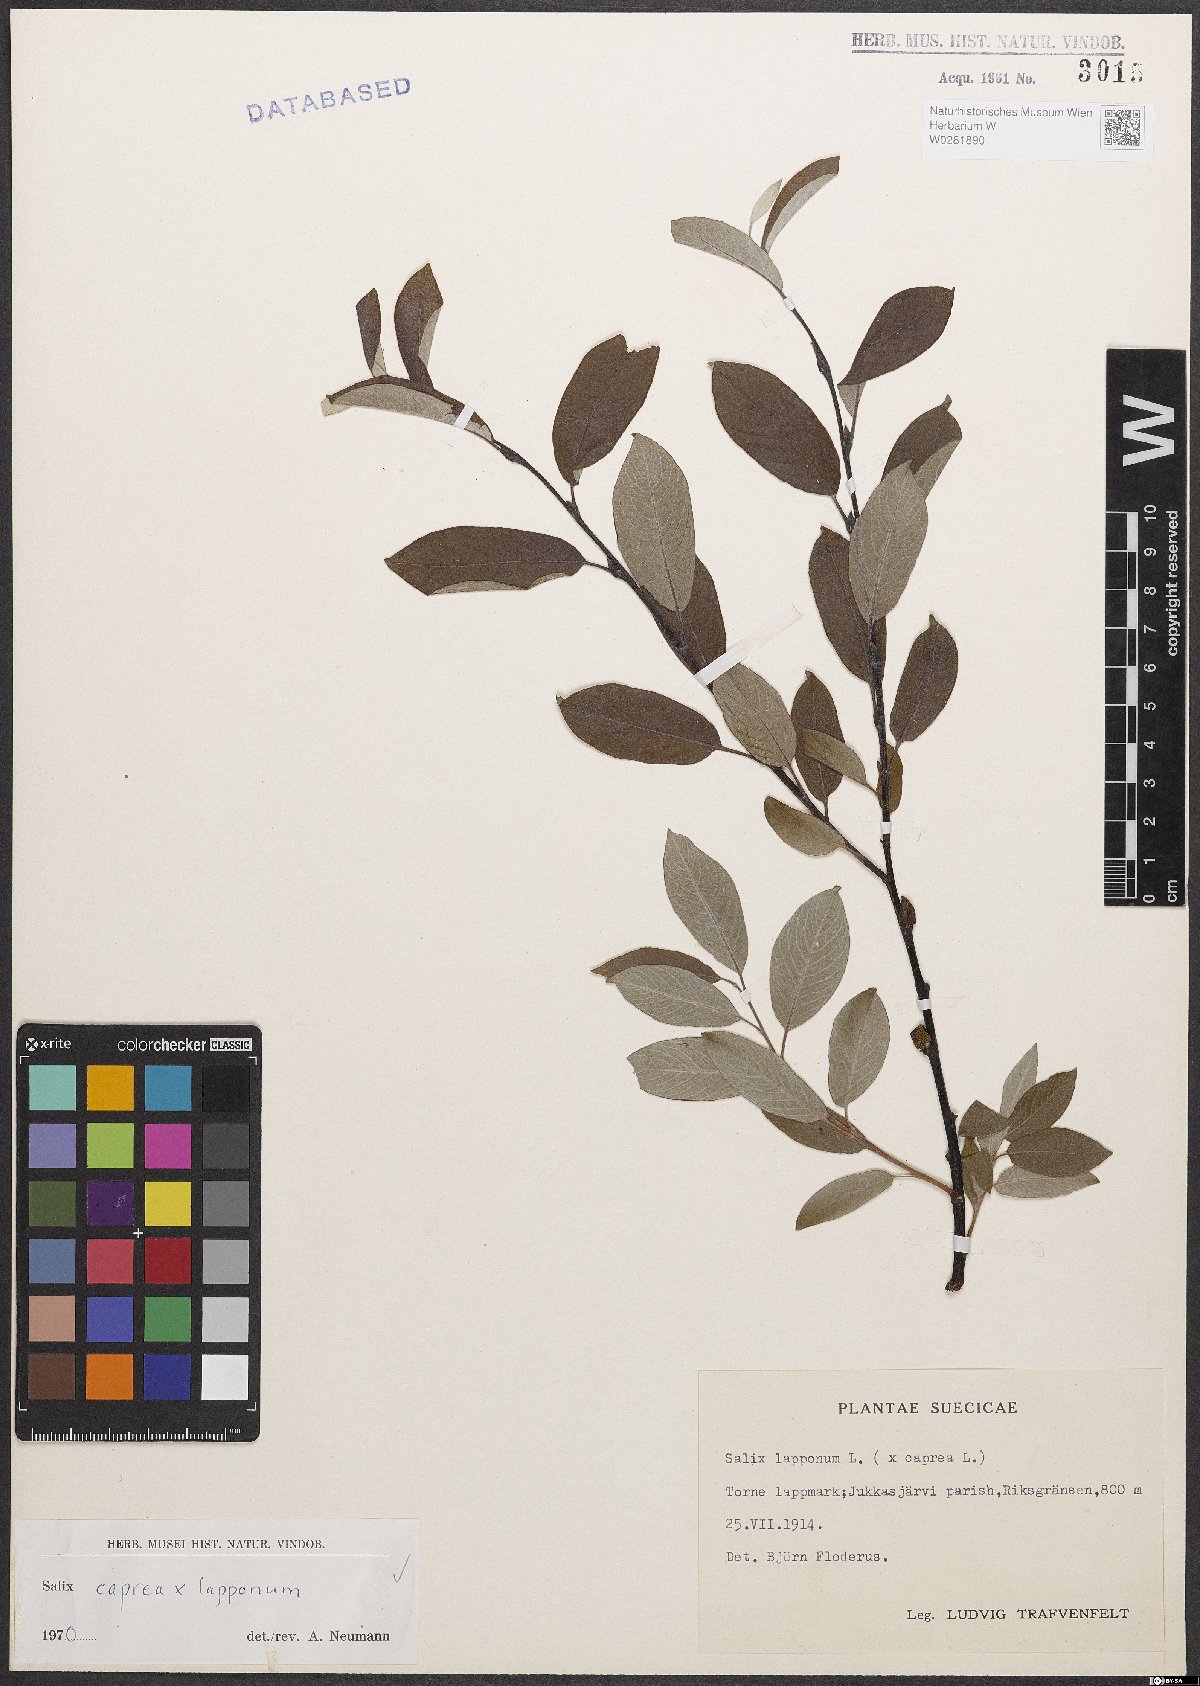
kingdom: Plantae
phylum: Tracheophyta
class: Magnoliopsida
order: Malpighiales
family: Salicaceae
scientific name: Salicaceae
